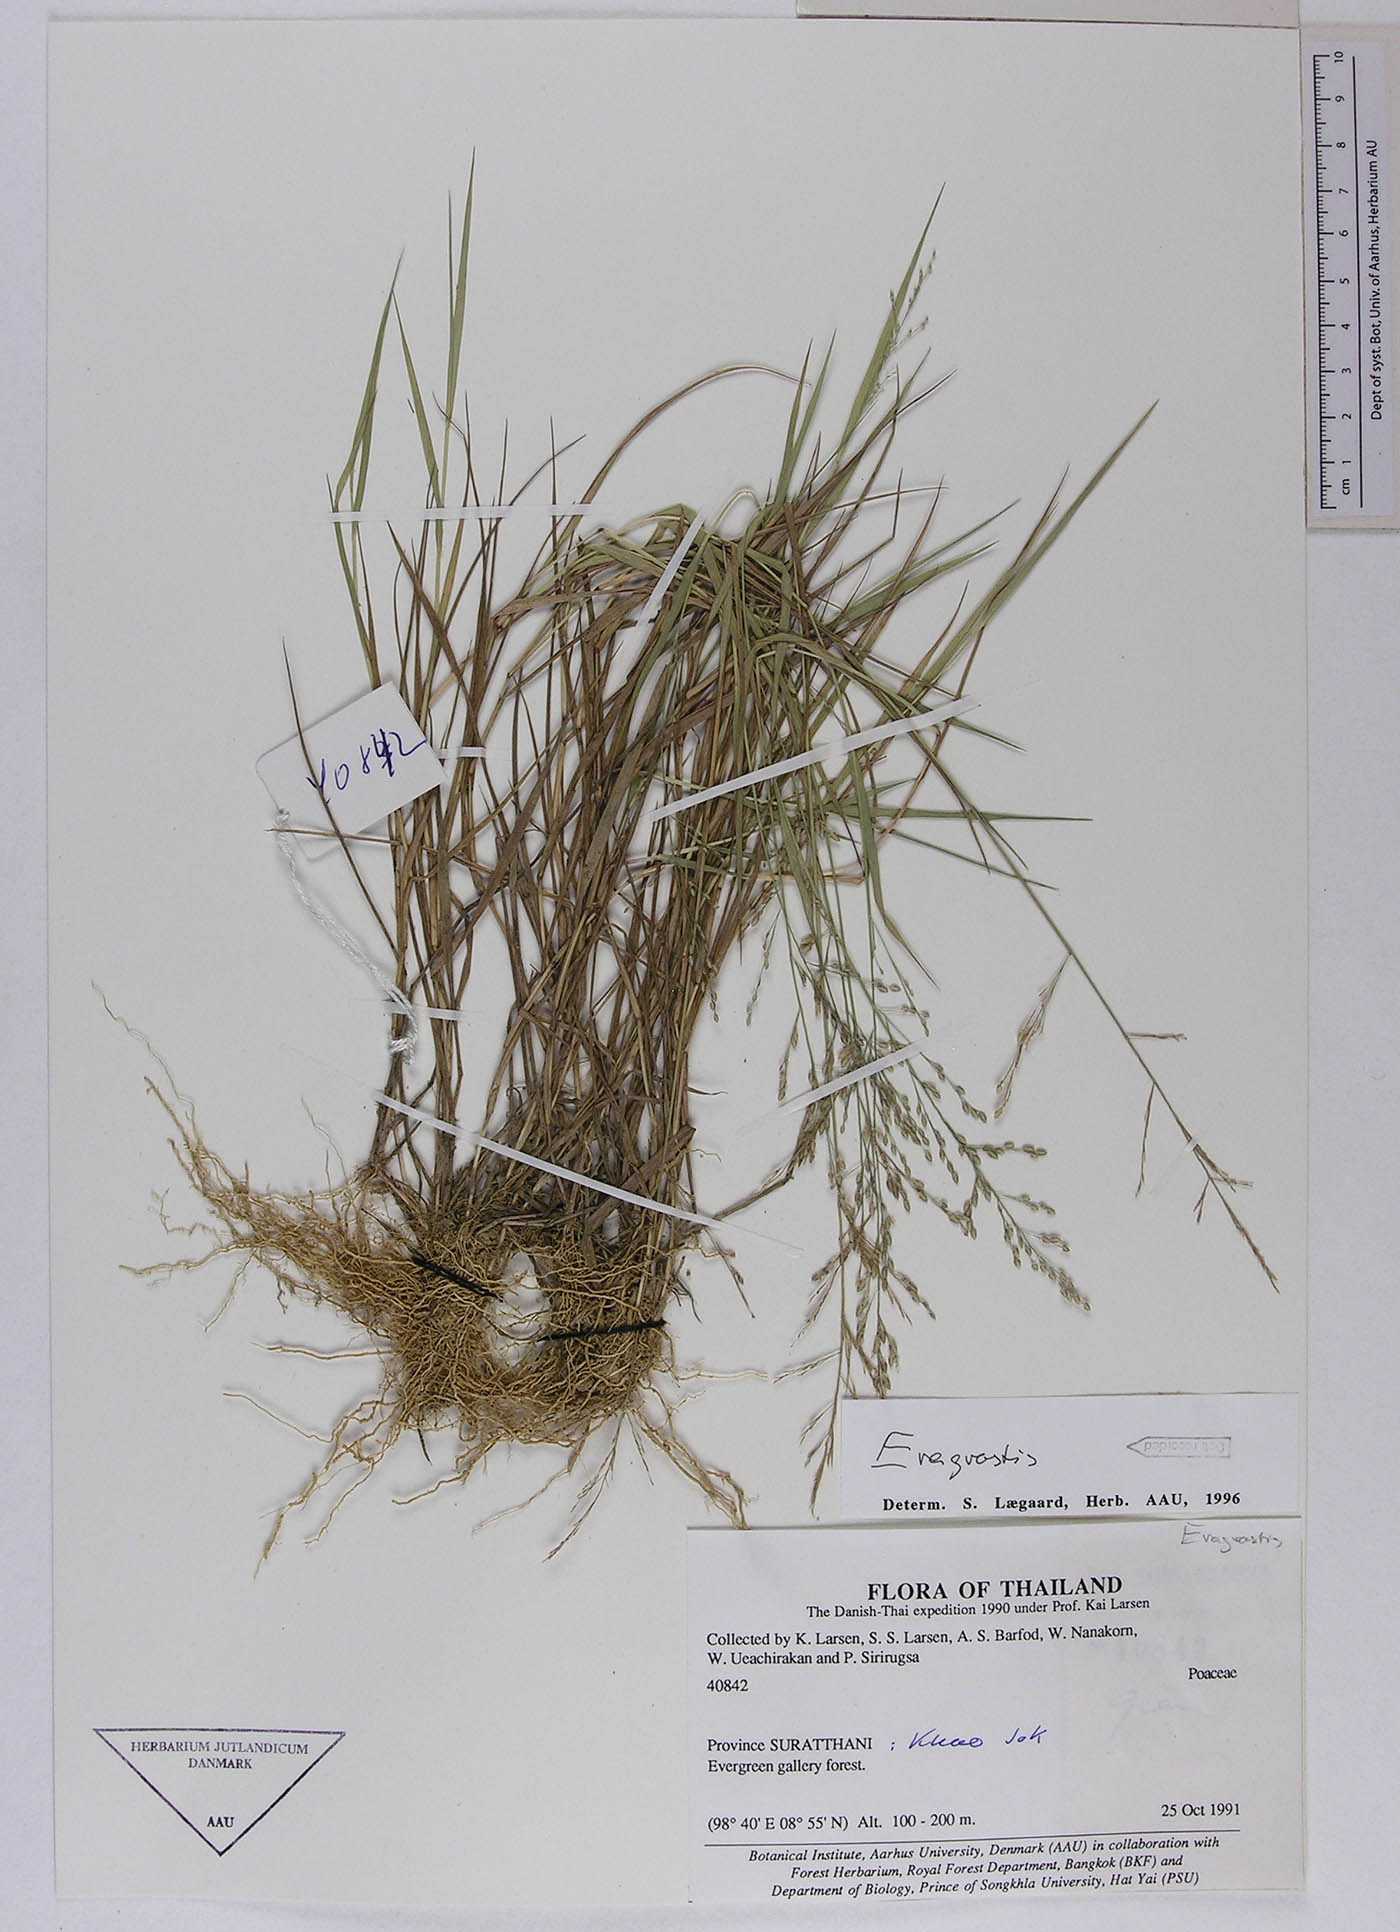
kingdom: Plantae
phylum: Tracheophyta
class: Liliopsida
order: Poales
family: Poaceae
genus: Eragrostis
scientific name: Eragrostis montana
